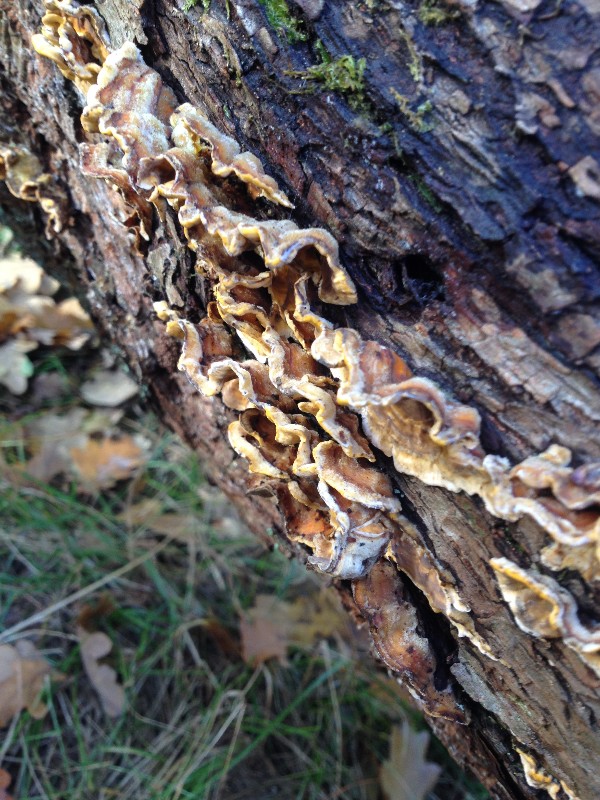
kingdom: Fungi
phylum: Basidiomycota
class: Agaricomycetes
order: Russulales
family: Stereaceae
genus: Stereum
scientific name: Stereum hirsutum
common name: håret lædersvamp
